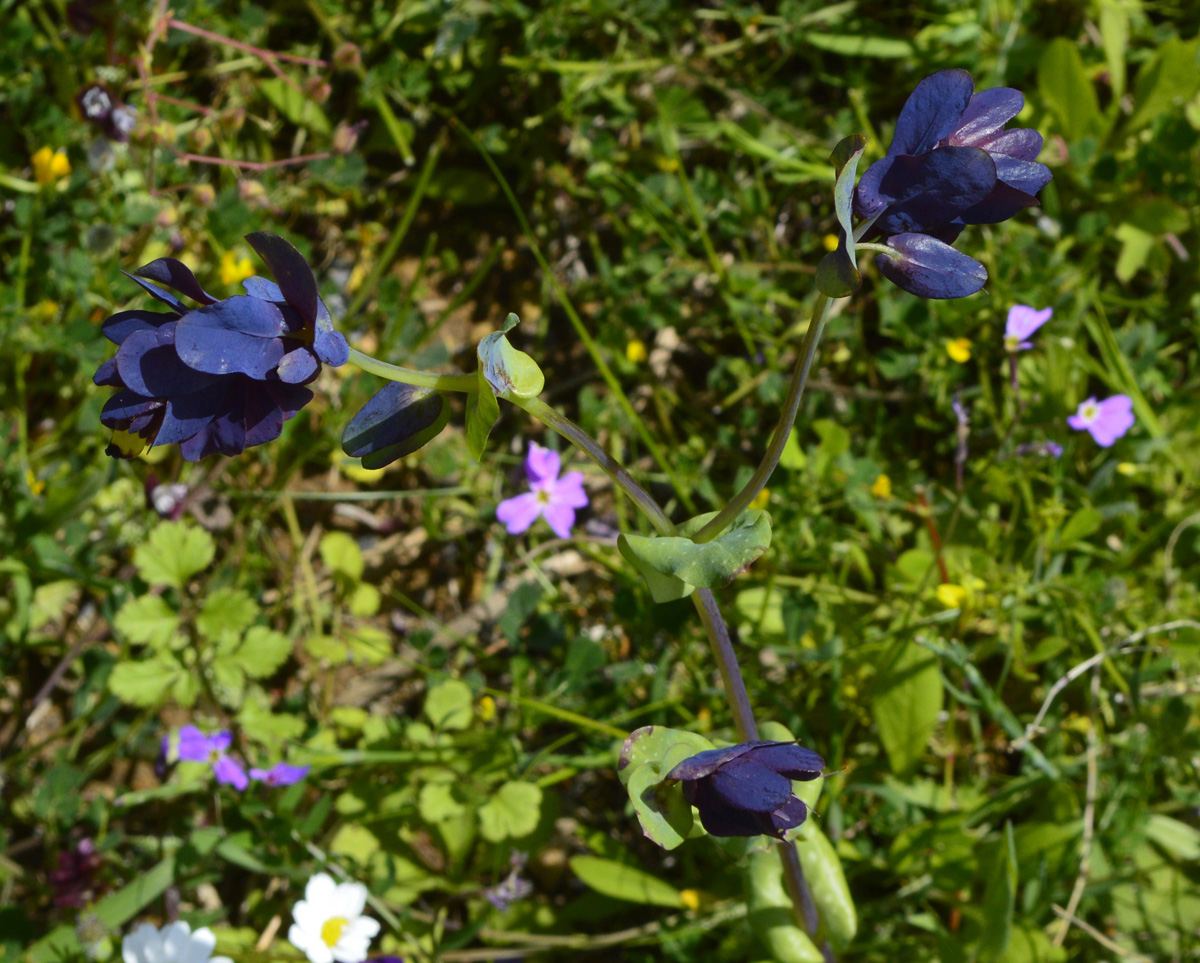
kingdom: Plantae
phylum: Tracheophyta
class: Magnoliopsida
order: Boraginales
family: Boraginaceae
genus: Cerinthe
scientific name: Cerinthe retorta
